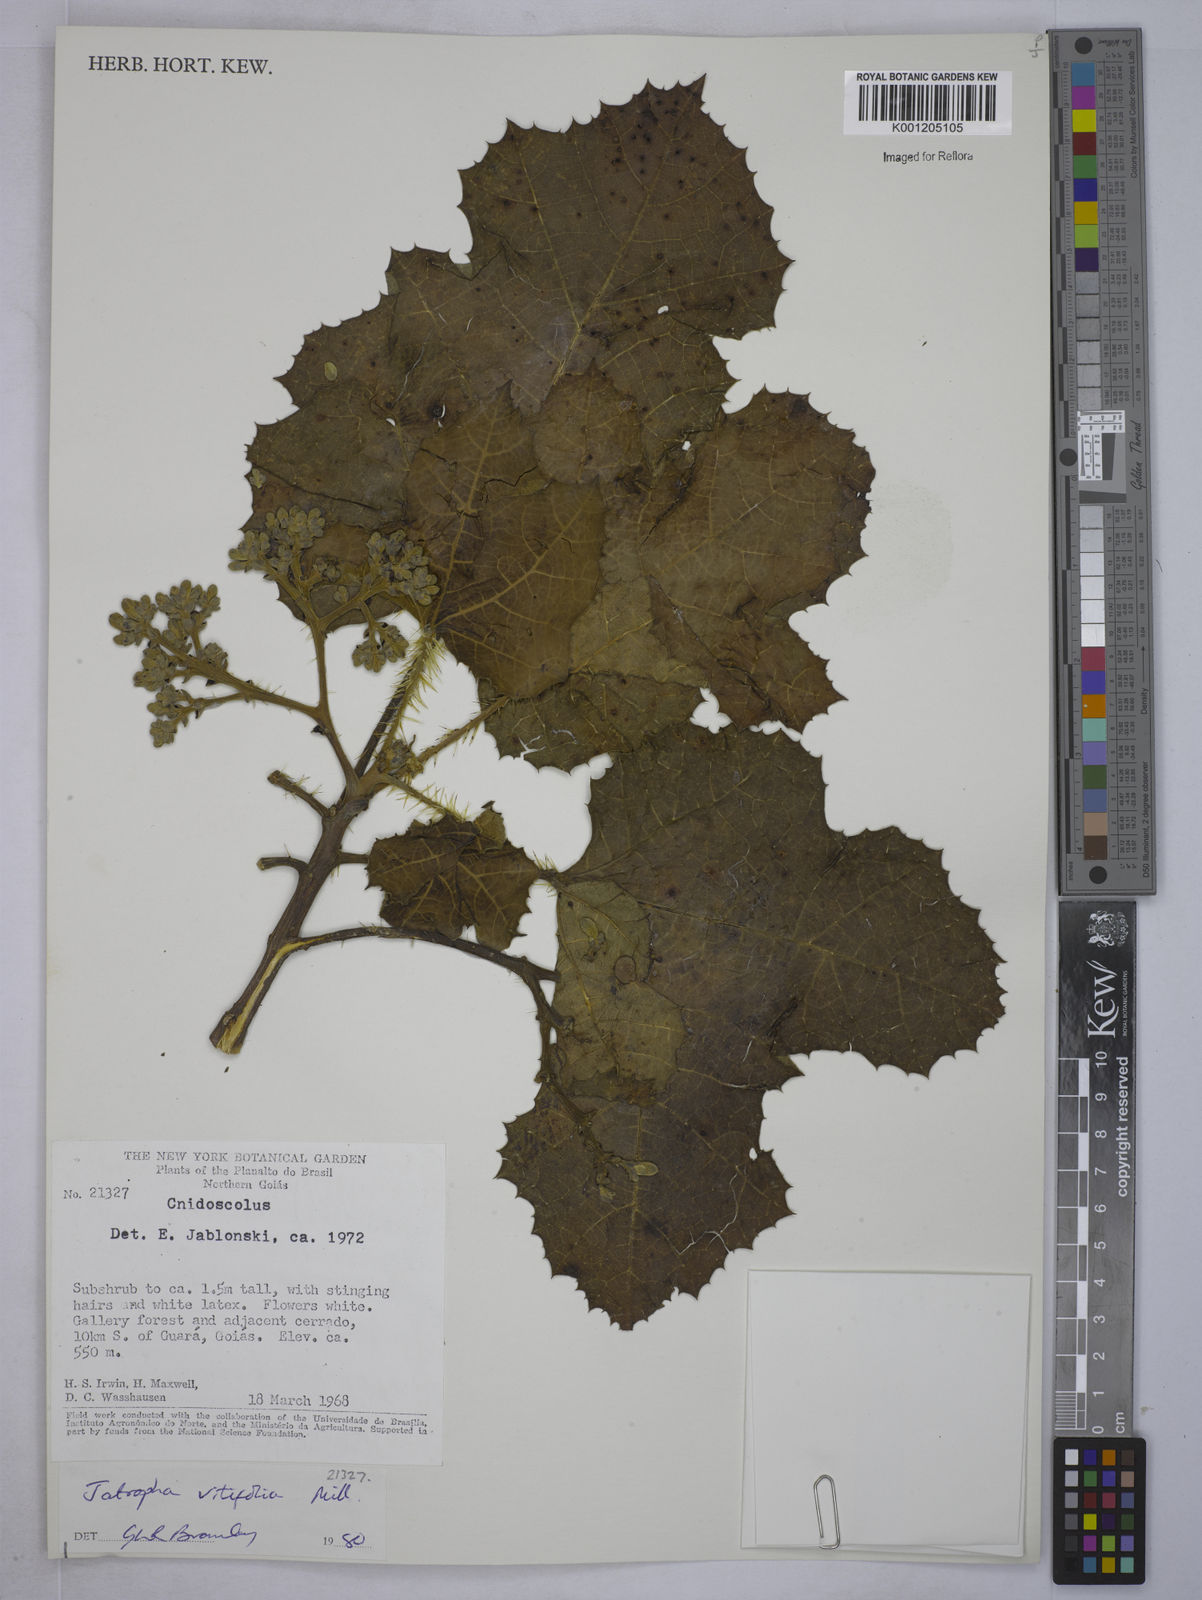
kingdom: Plantae
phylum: Tracheophyta
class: Magnoliopsida
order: Malpighiales
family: Euphorbiaceae
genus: Cnidoscolus
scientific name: Cnidoscolus vitifolius
